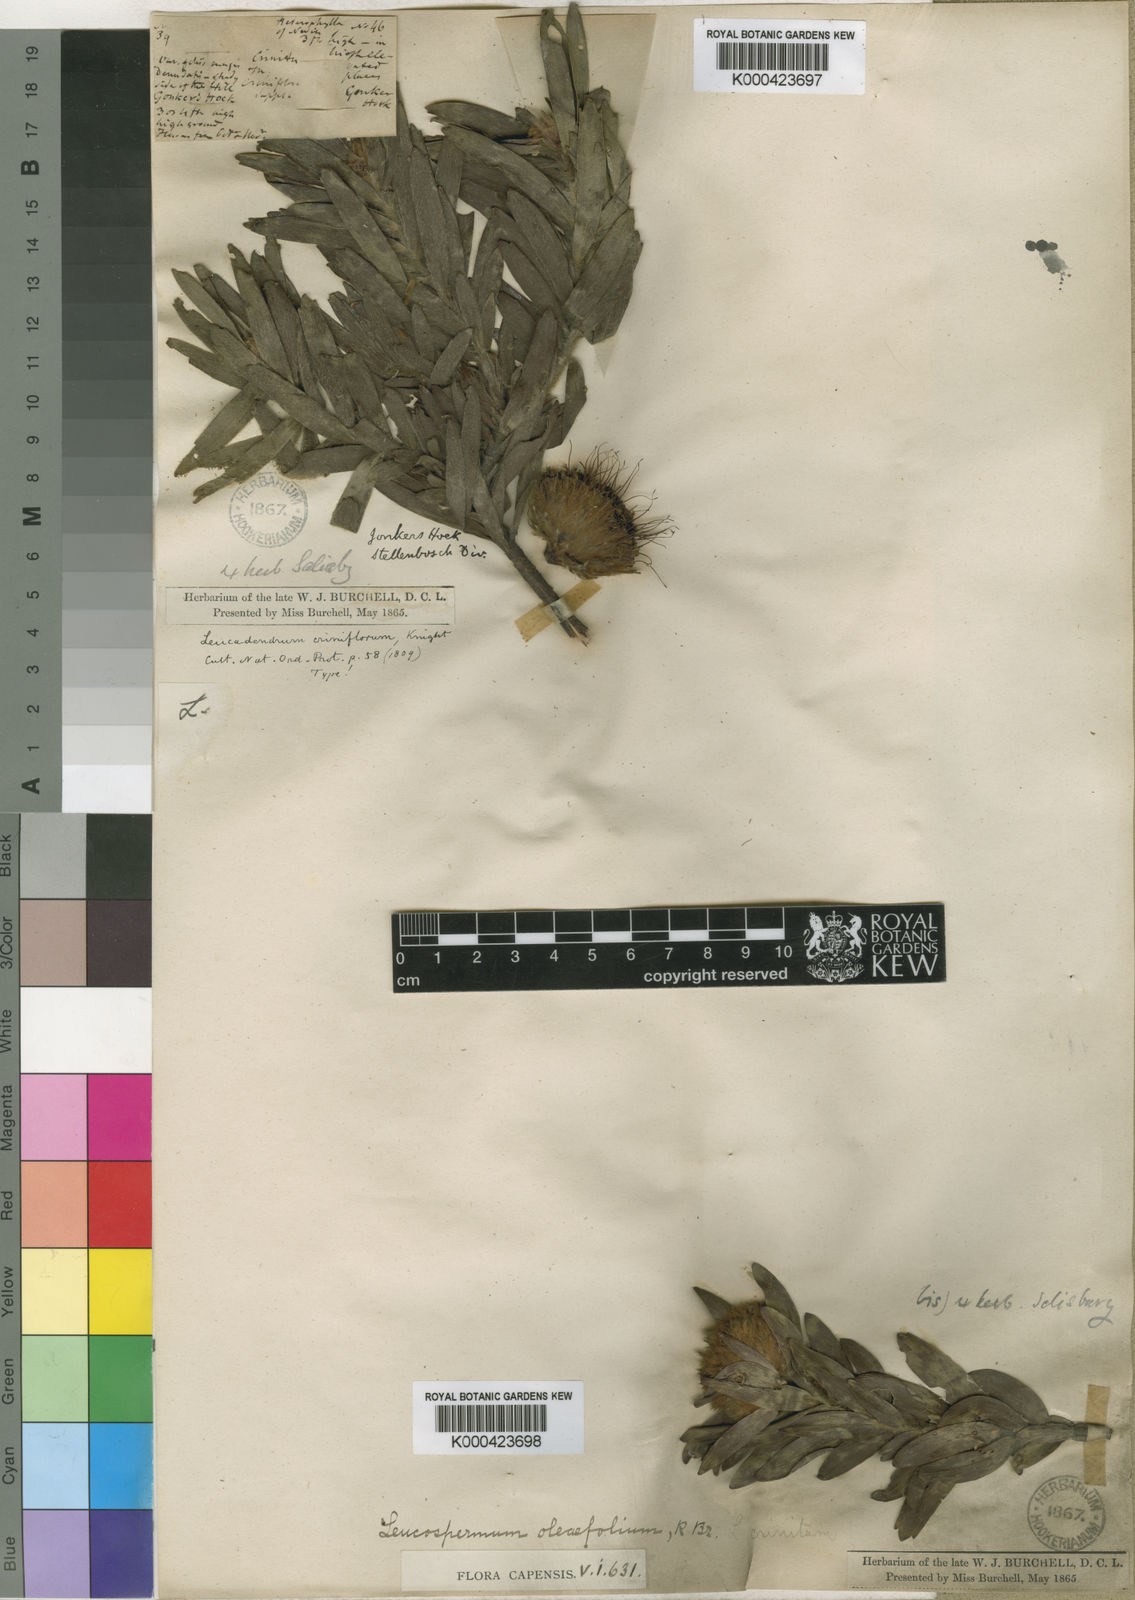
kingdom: Plantae
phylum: Tracheophyta
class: Magnoliopsida
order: Proteales
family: Proteaceae
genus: Leucospermum
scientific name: Leucospermum oleifolium
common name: Matches
